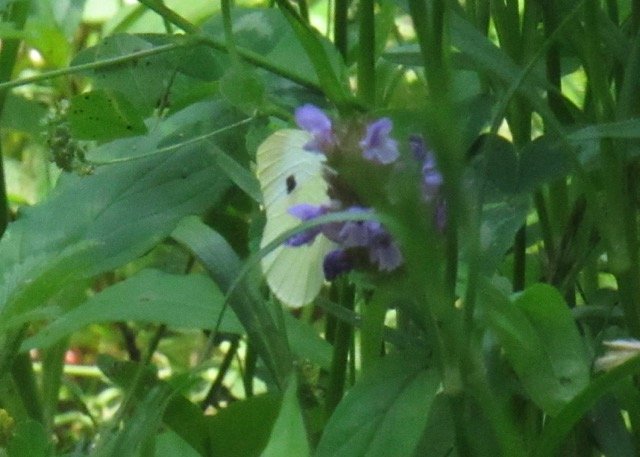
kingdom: Animalia
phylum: Arthropoda
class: Insecta
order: Lepidoptera
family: Pieridae
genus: Pieris
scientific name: Pieris rapae
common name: Cabbage White
